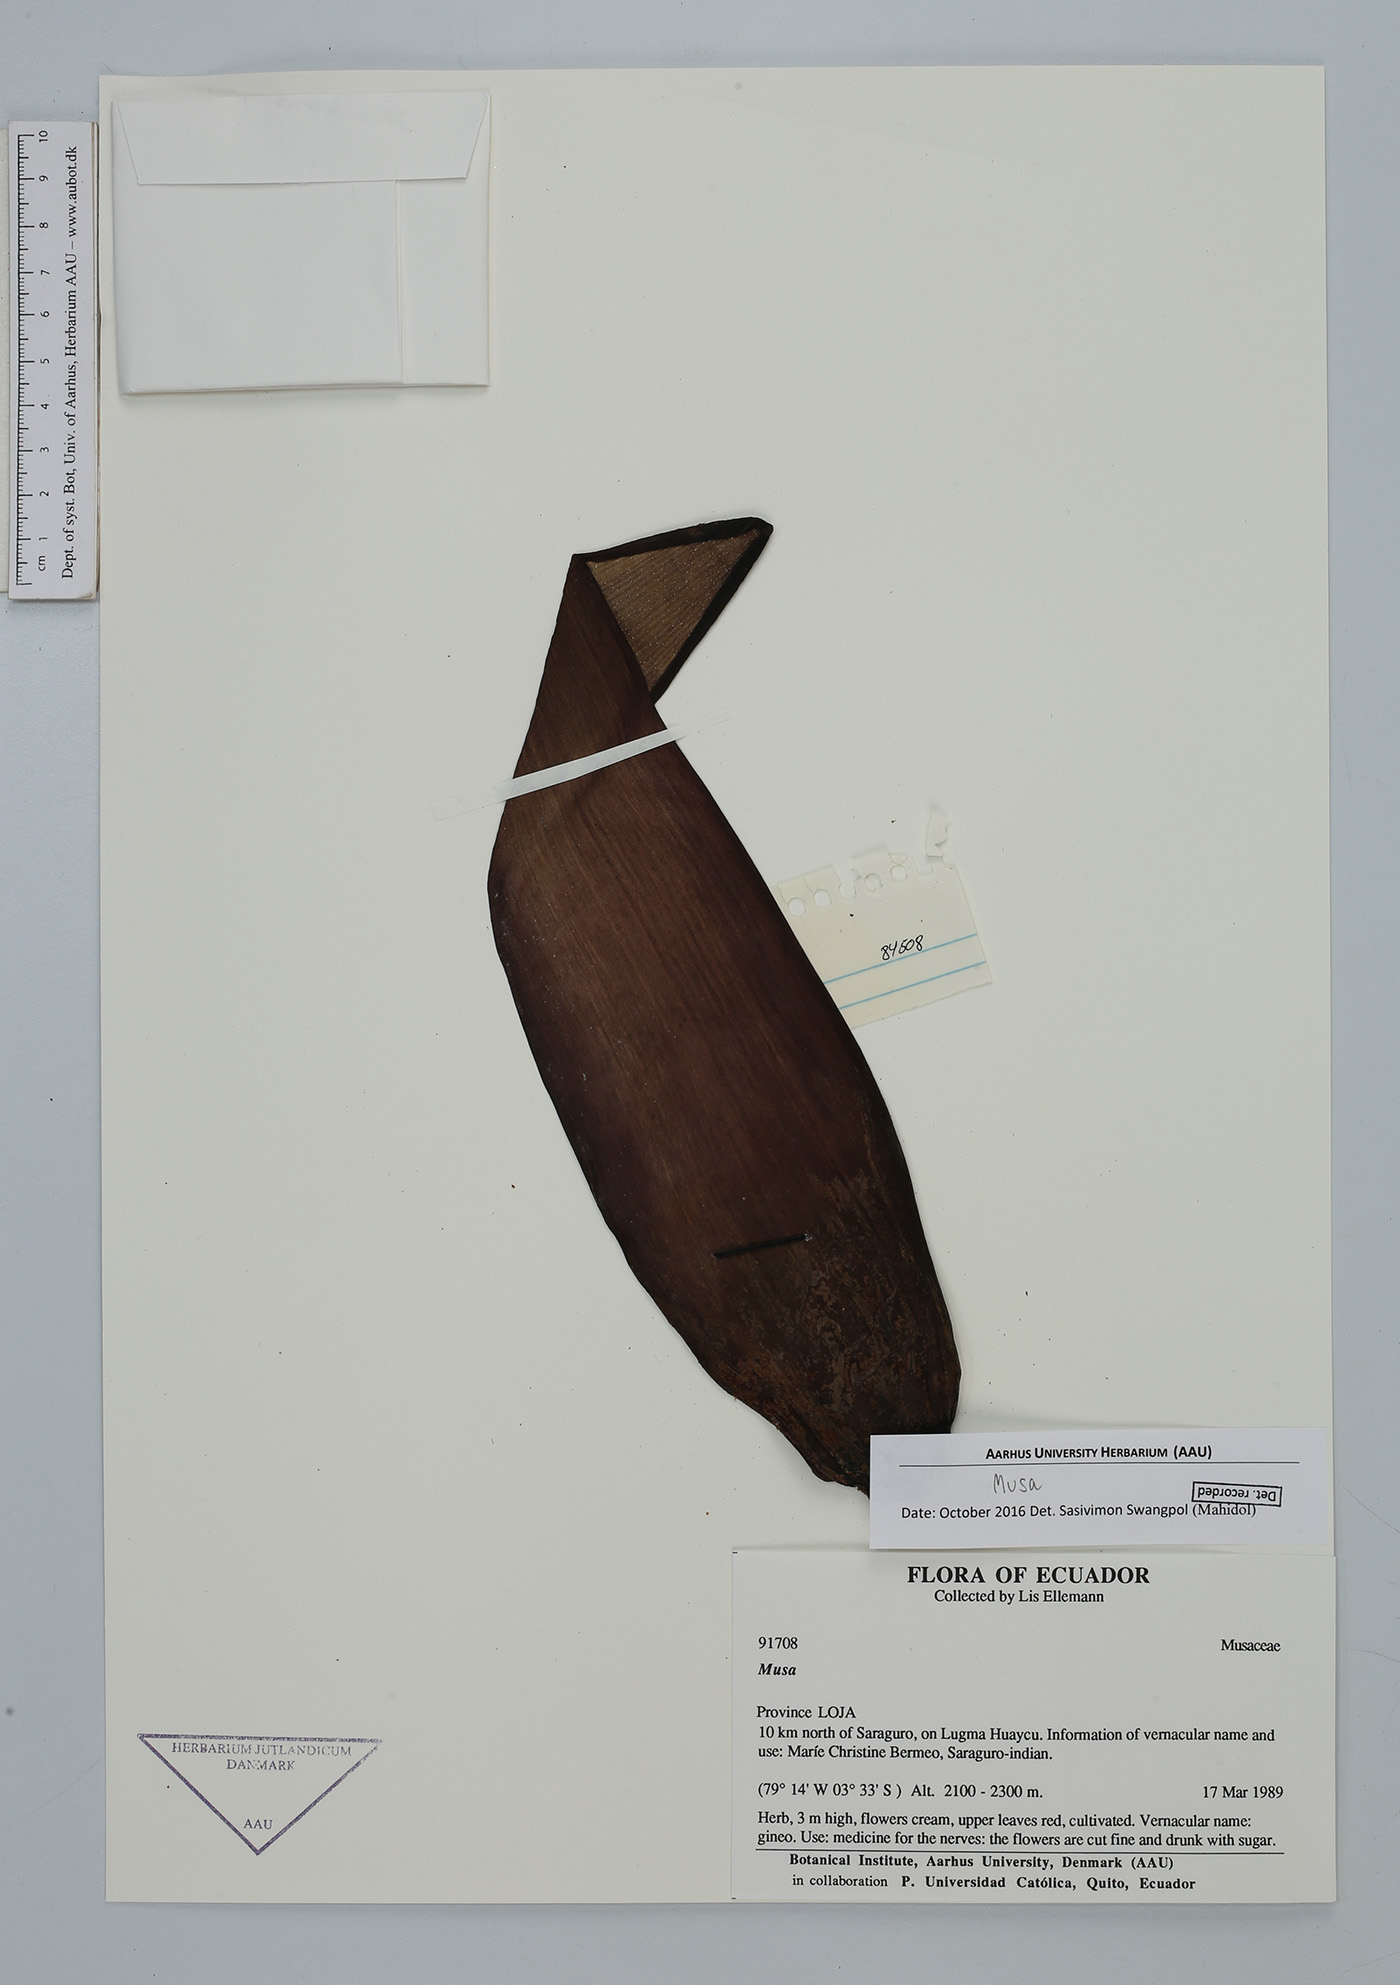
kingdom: Plantae
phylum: Tracheophyta
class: Liliopsida
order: Zingiberales
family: Musaceae
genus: Musa
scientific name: Musa
